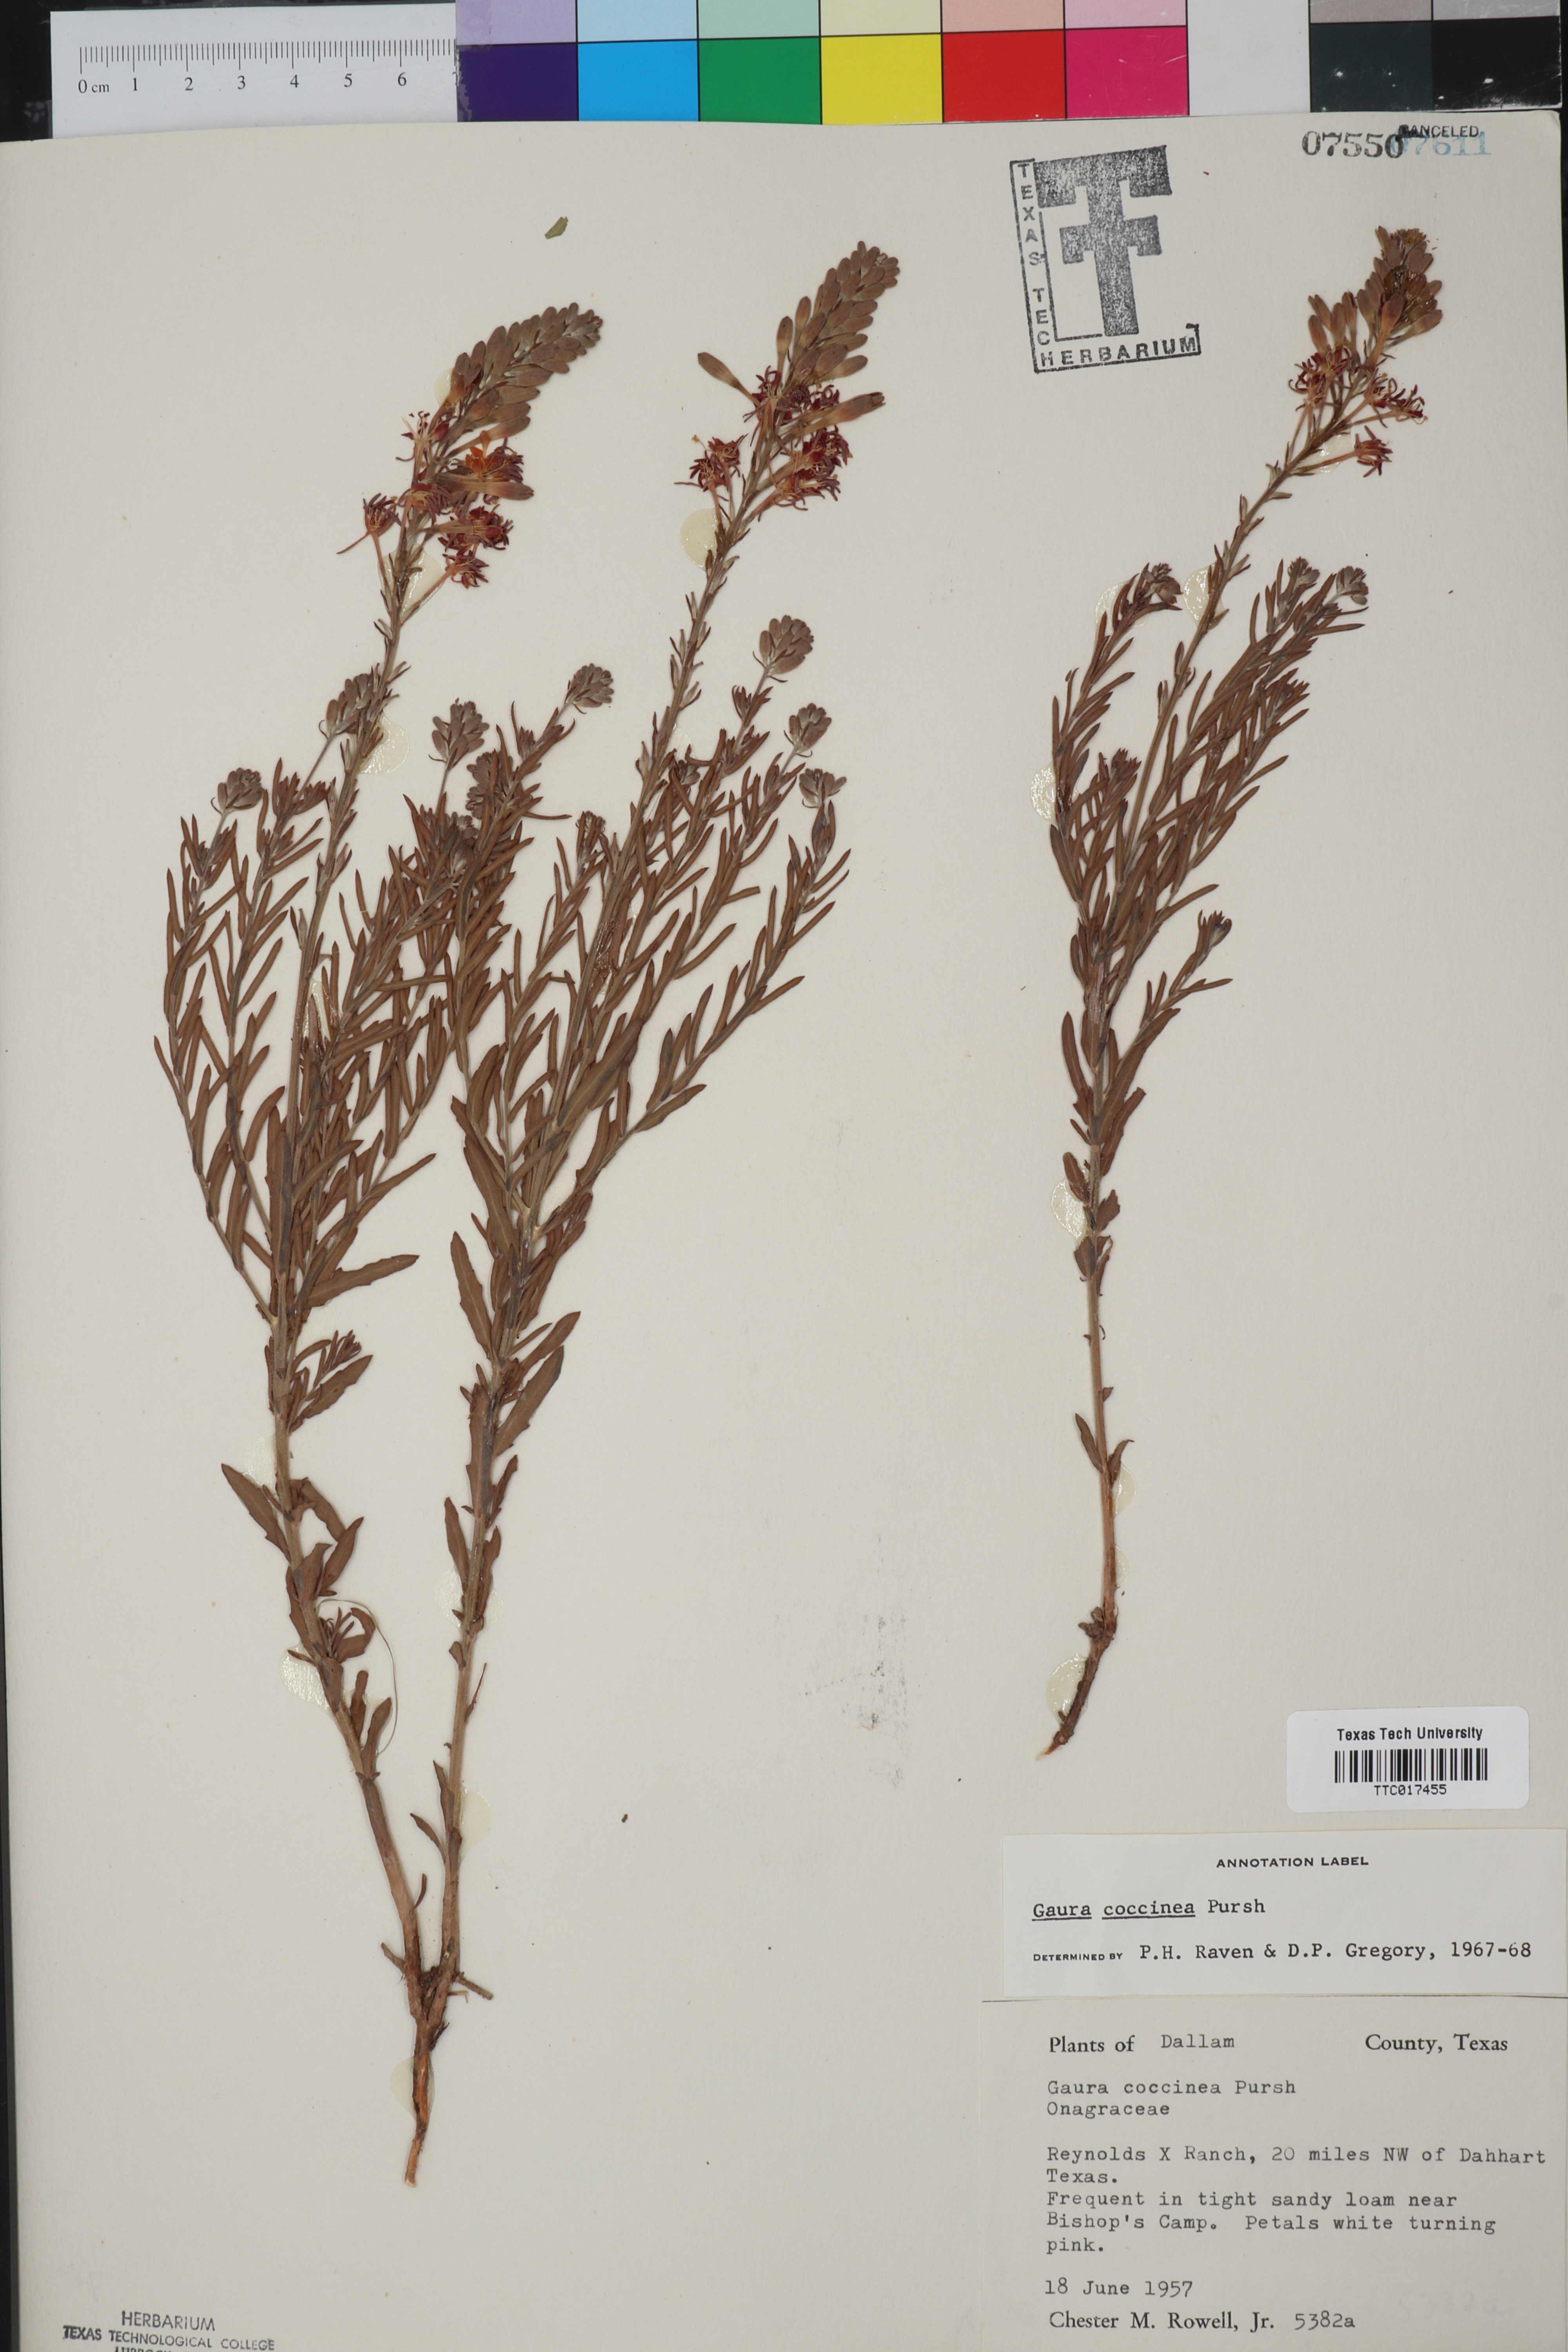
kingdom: Plantae
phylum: Tracheophyta
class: Magnoliopsida
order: Myrtales
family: Onagraceae
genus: Oenothera
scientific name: Oenothera suffrutescens
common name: Scarlet beeblossom
